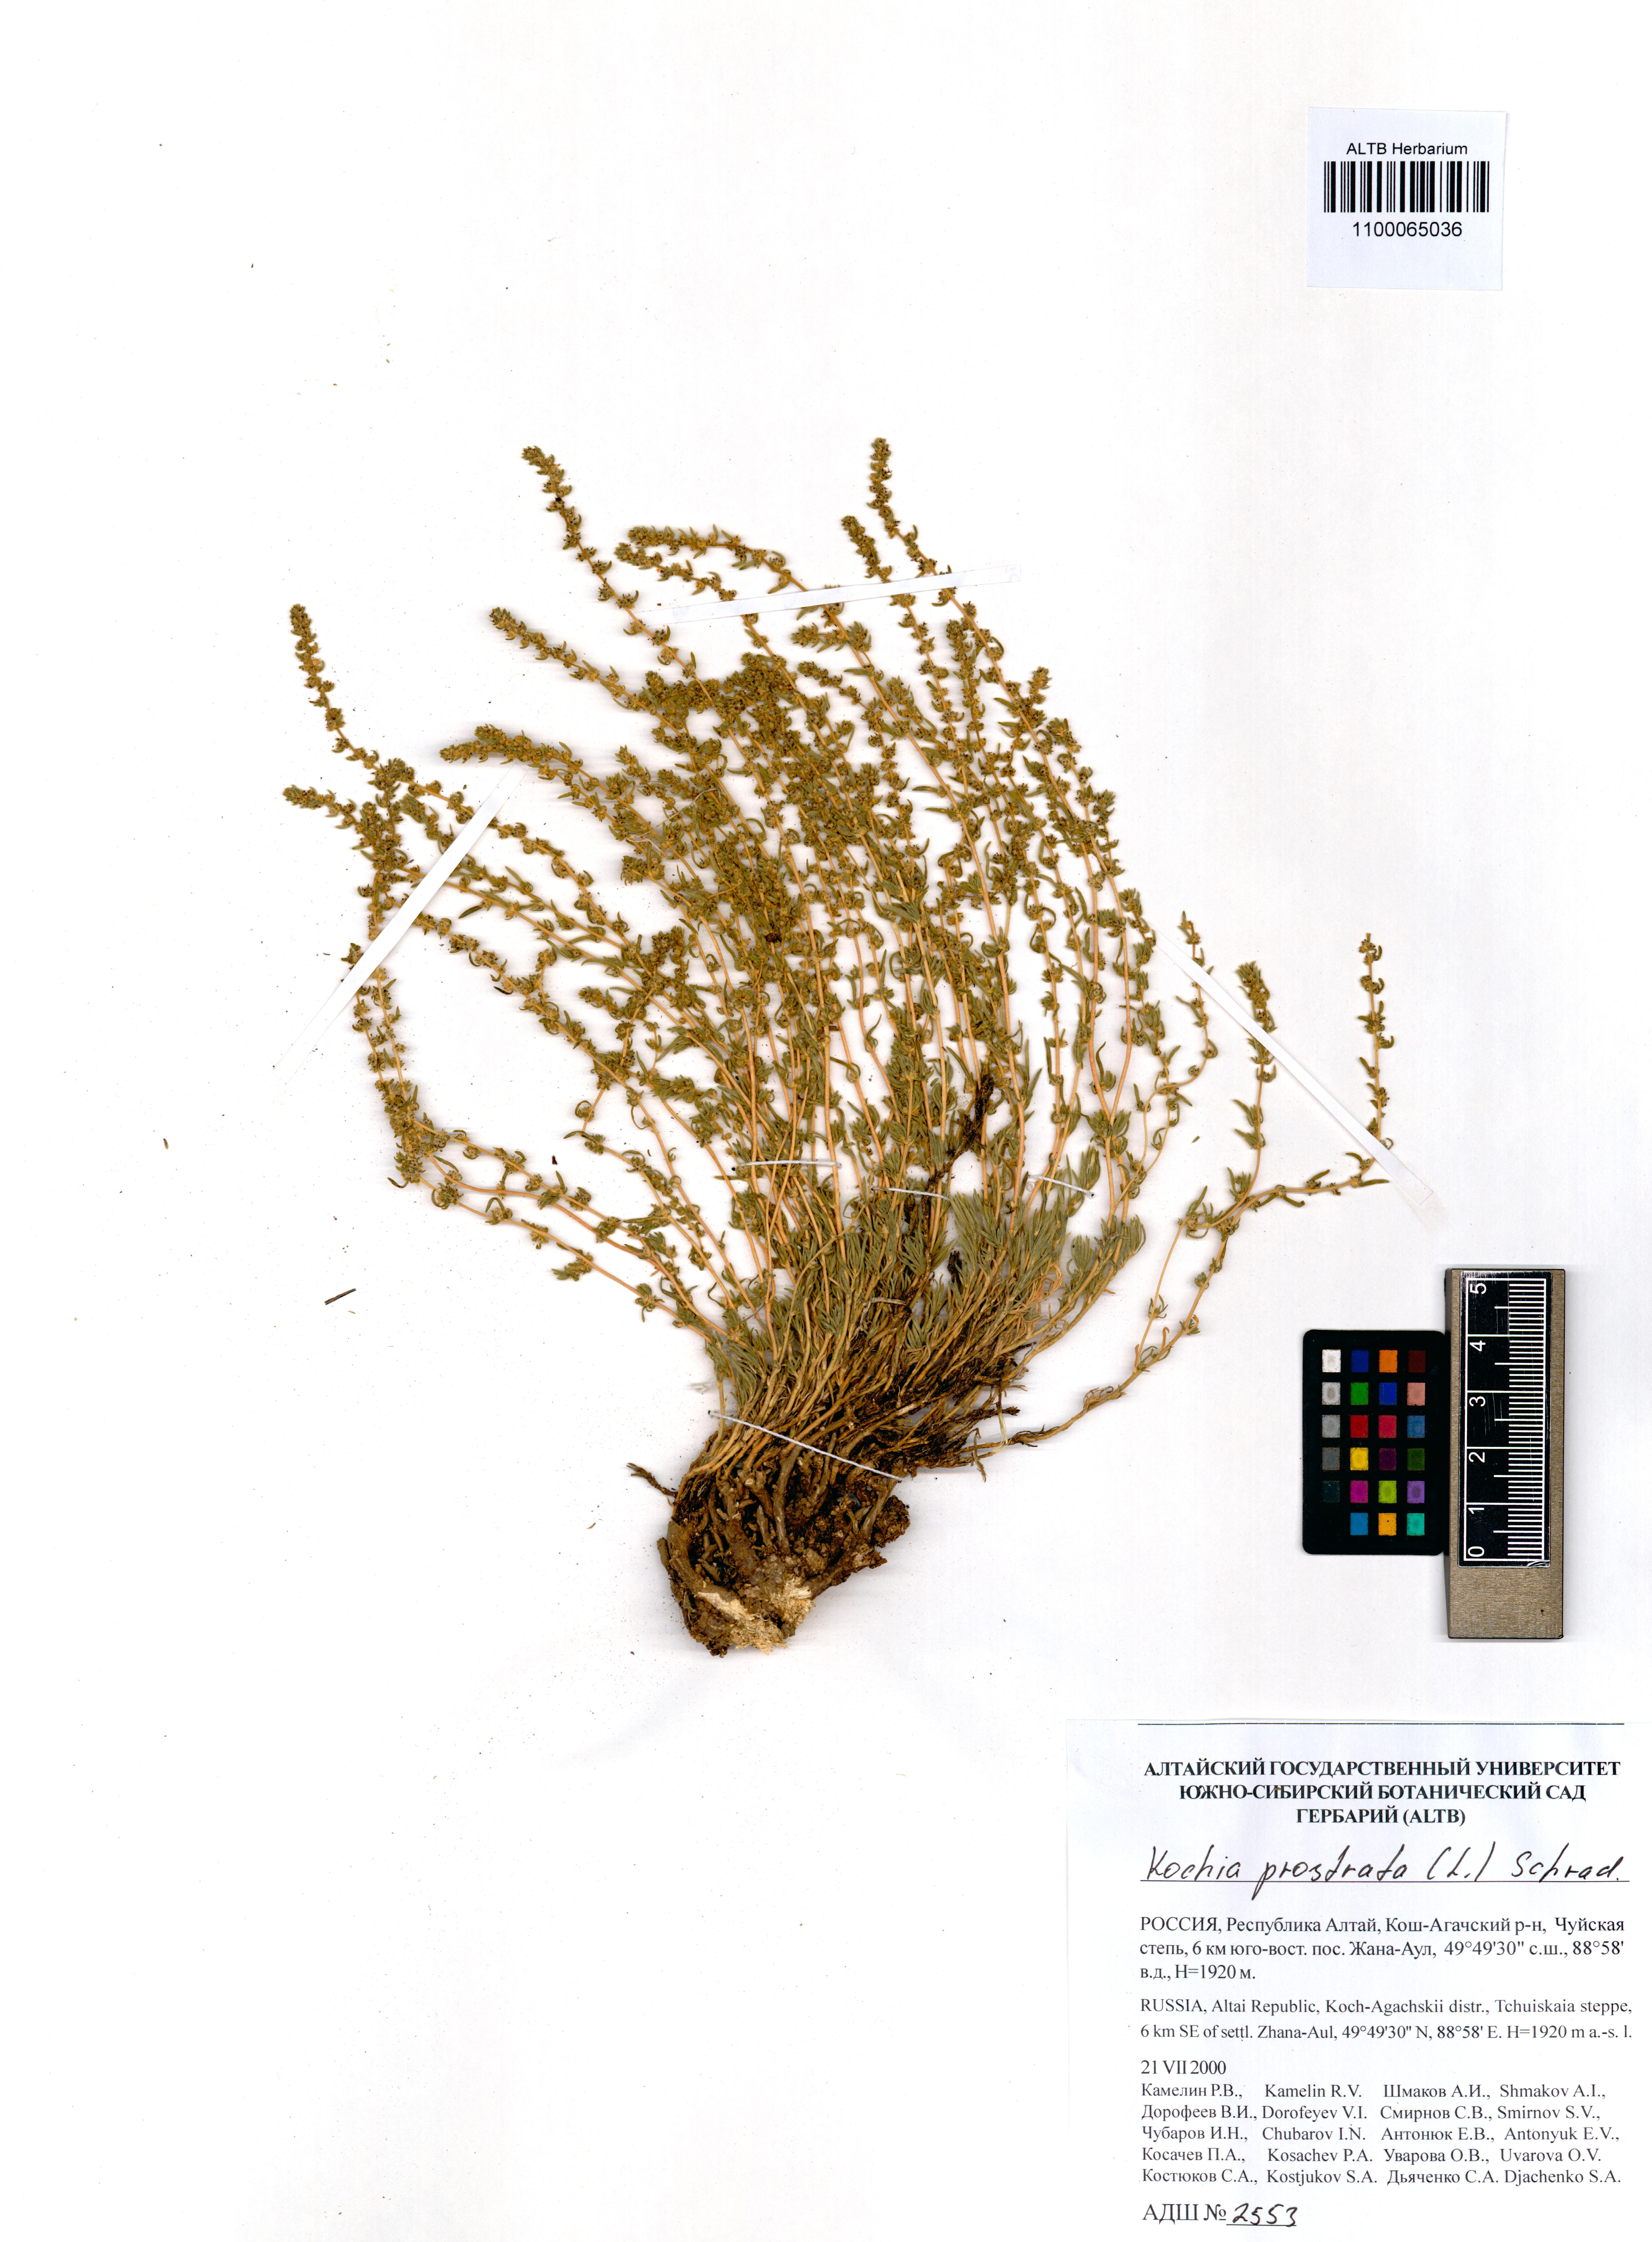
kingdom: Plantae
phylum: Tracheophyta
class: Magnoliopsida
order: Caryophyllales
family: Amaranthaceae
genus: Bassia
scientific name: Bassia prostrata
